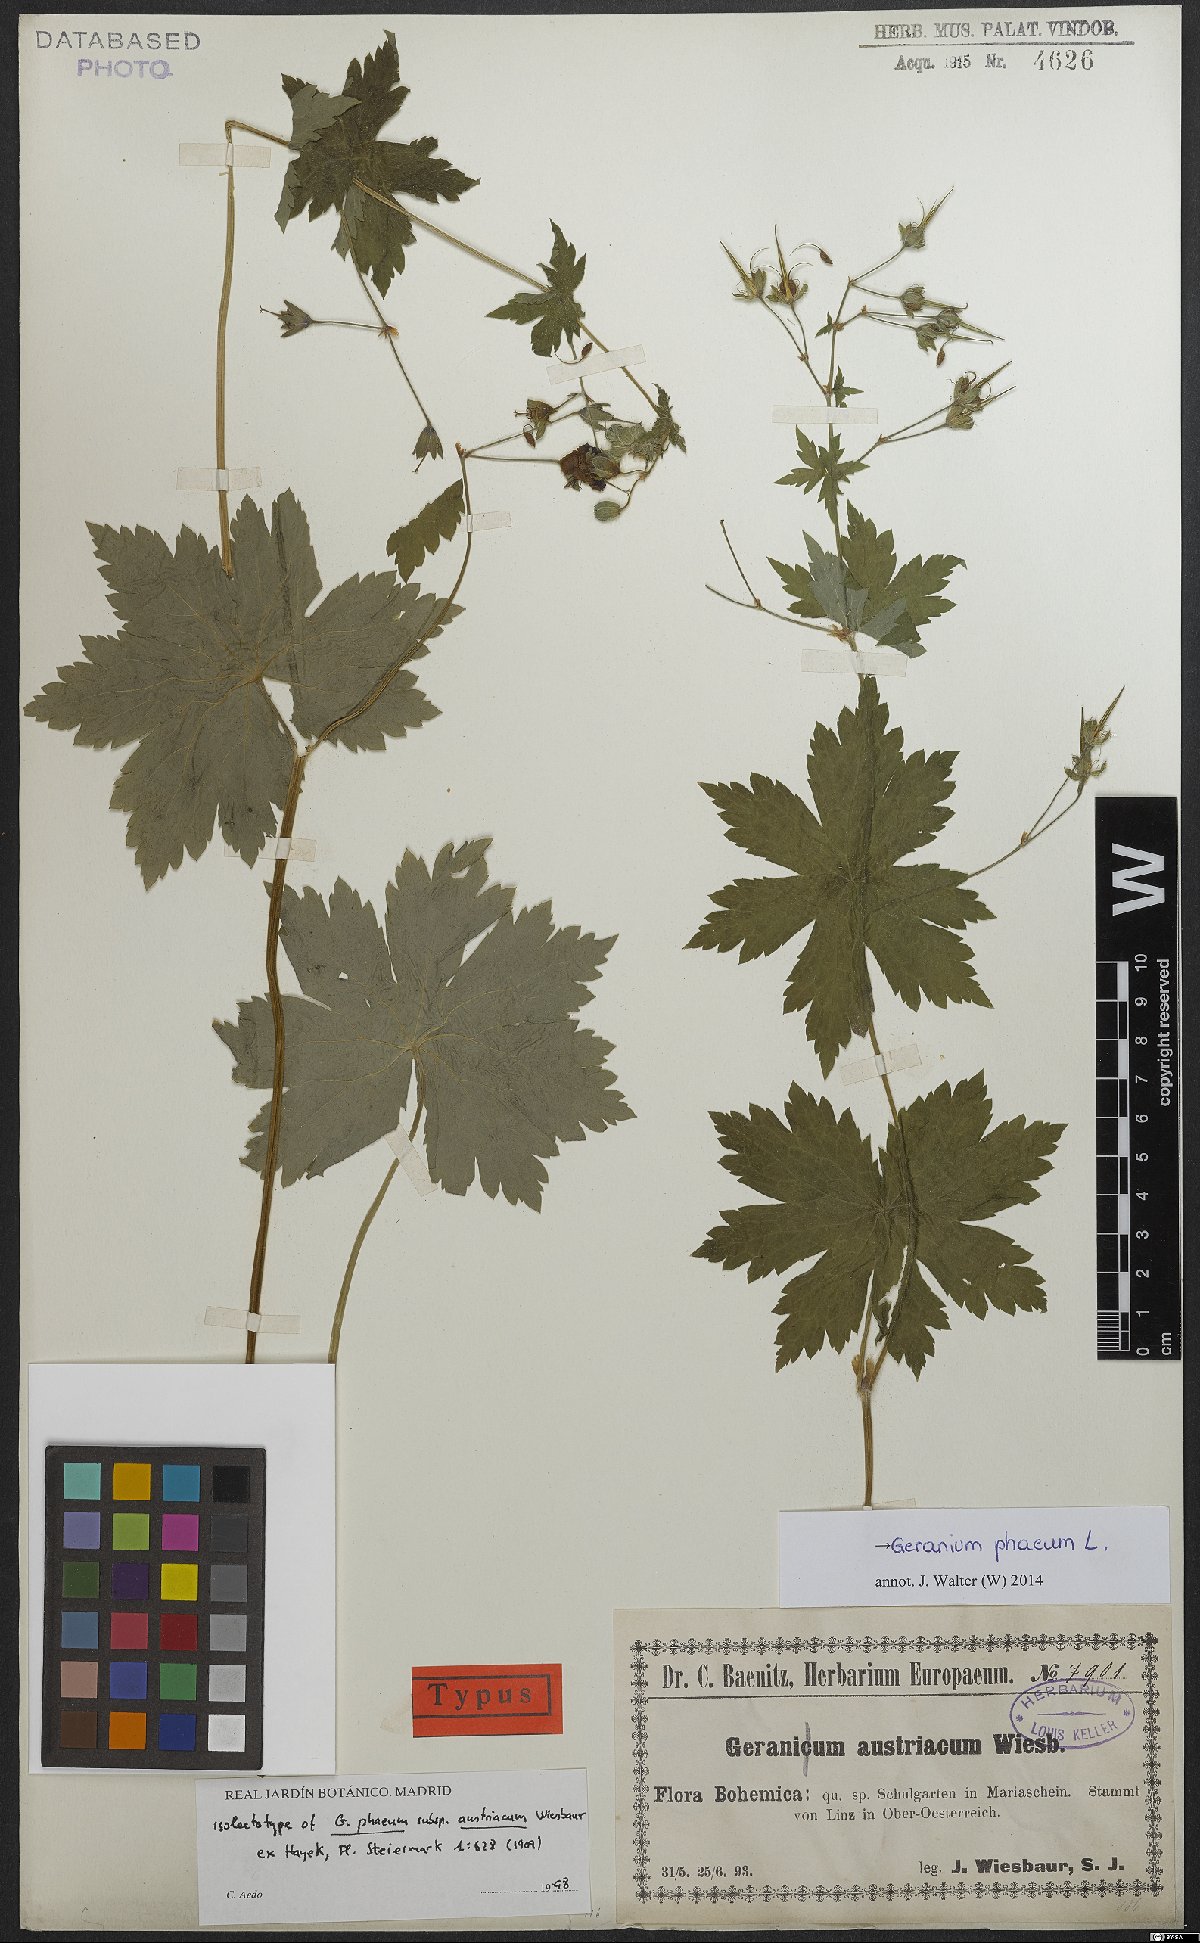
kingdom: Plantae
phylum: Tracheophyta
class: Magnoliopsida
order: Geraniales
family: Geraniaceae
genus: Geranium
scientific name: Geranium phaeum
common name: Dusky crane's-bill
